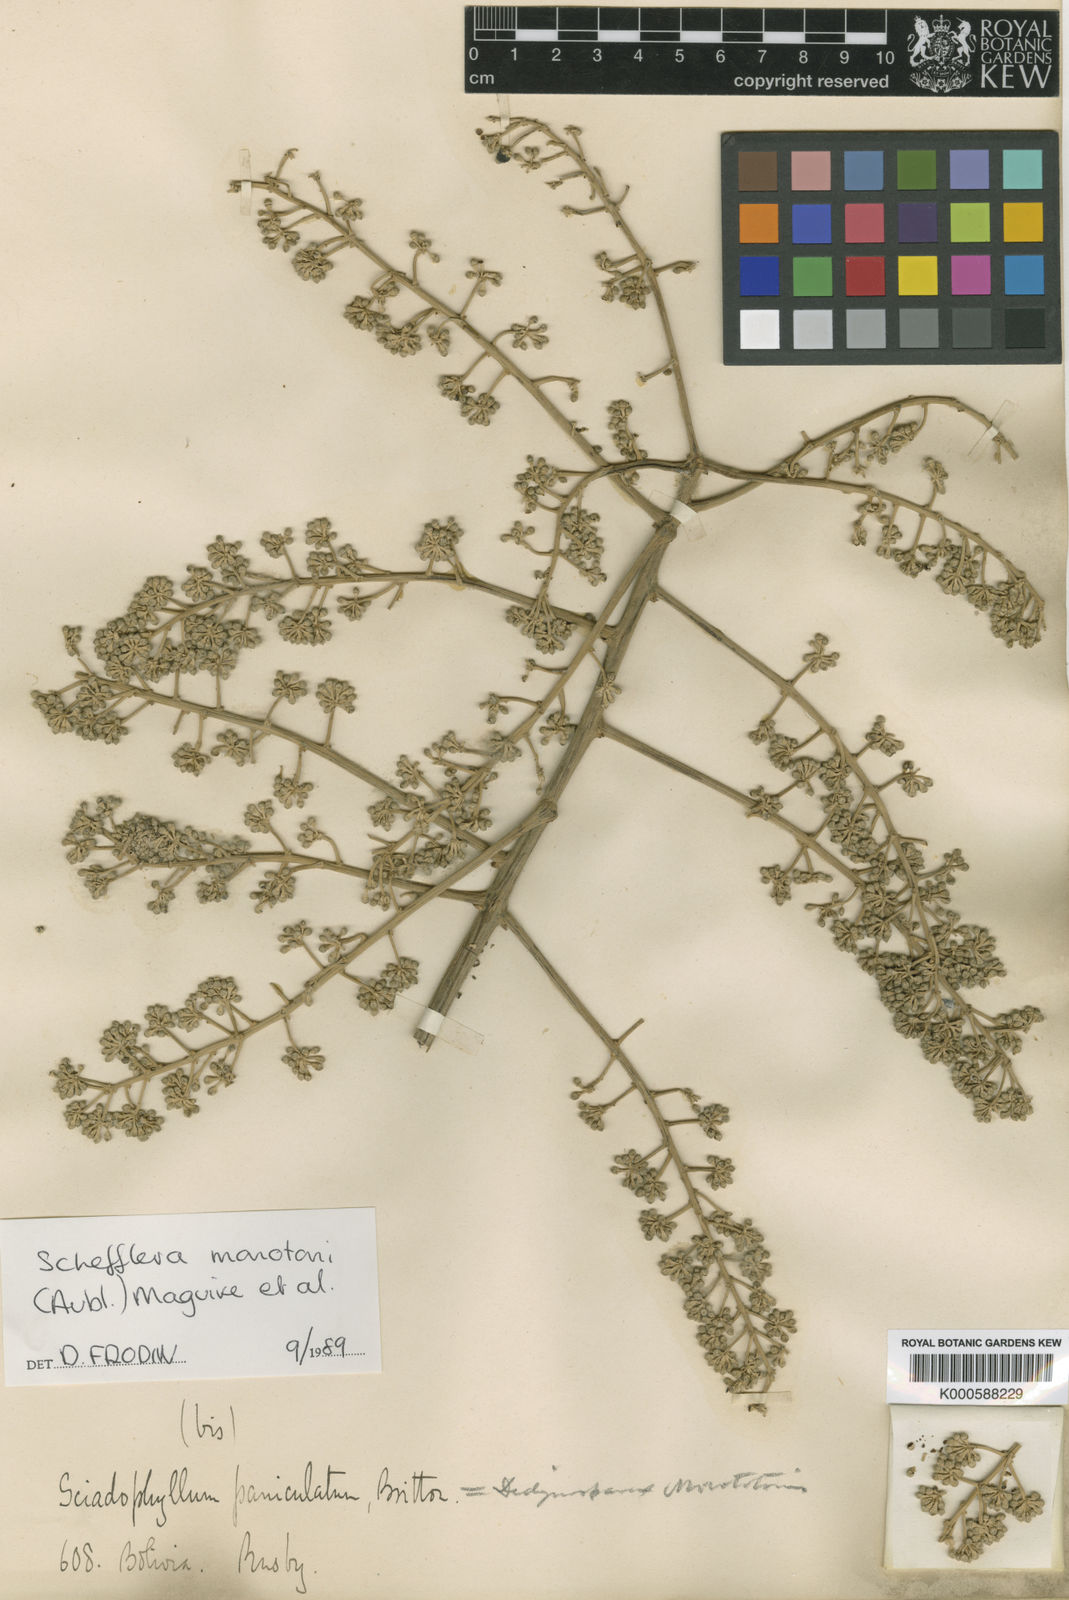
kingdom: Plantae
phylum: Tracheophyta
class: Magnoliopsida
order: Apiales
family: Araliaceae
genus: Schefflera
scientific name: Schefflera
